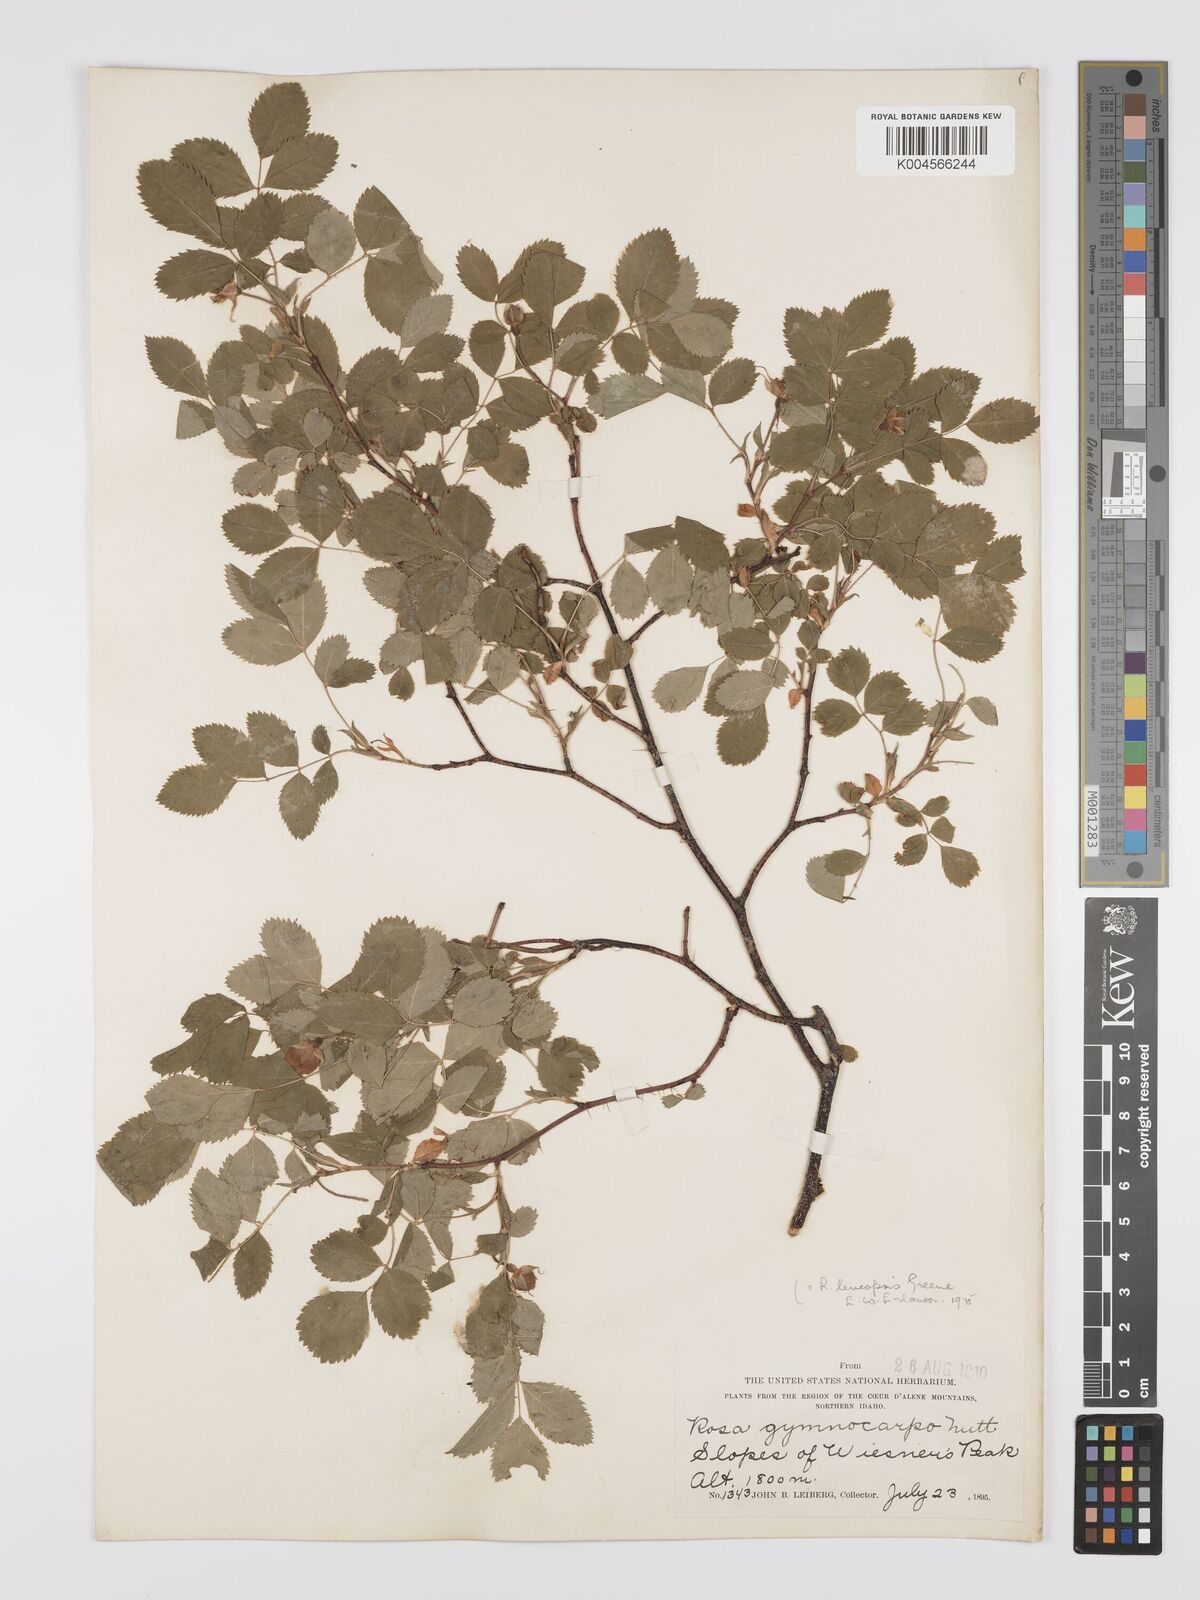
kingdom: Plantae
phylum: Tracheophyta
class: Magnoliopsida
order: Rosales
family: Rosaceae
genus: Rosa
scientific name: Rosa gymnocarpa
